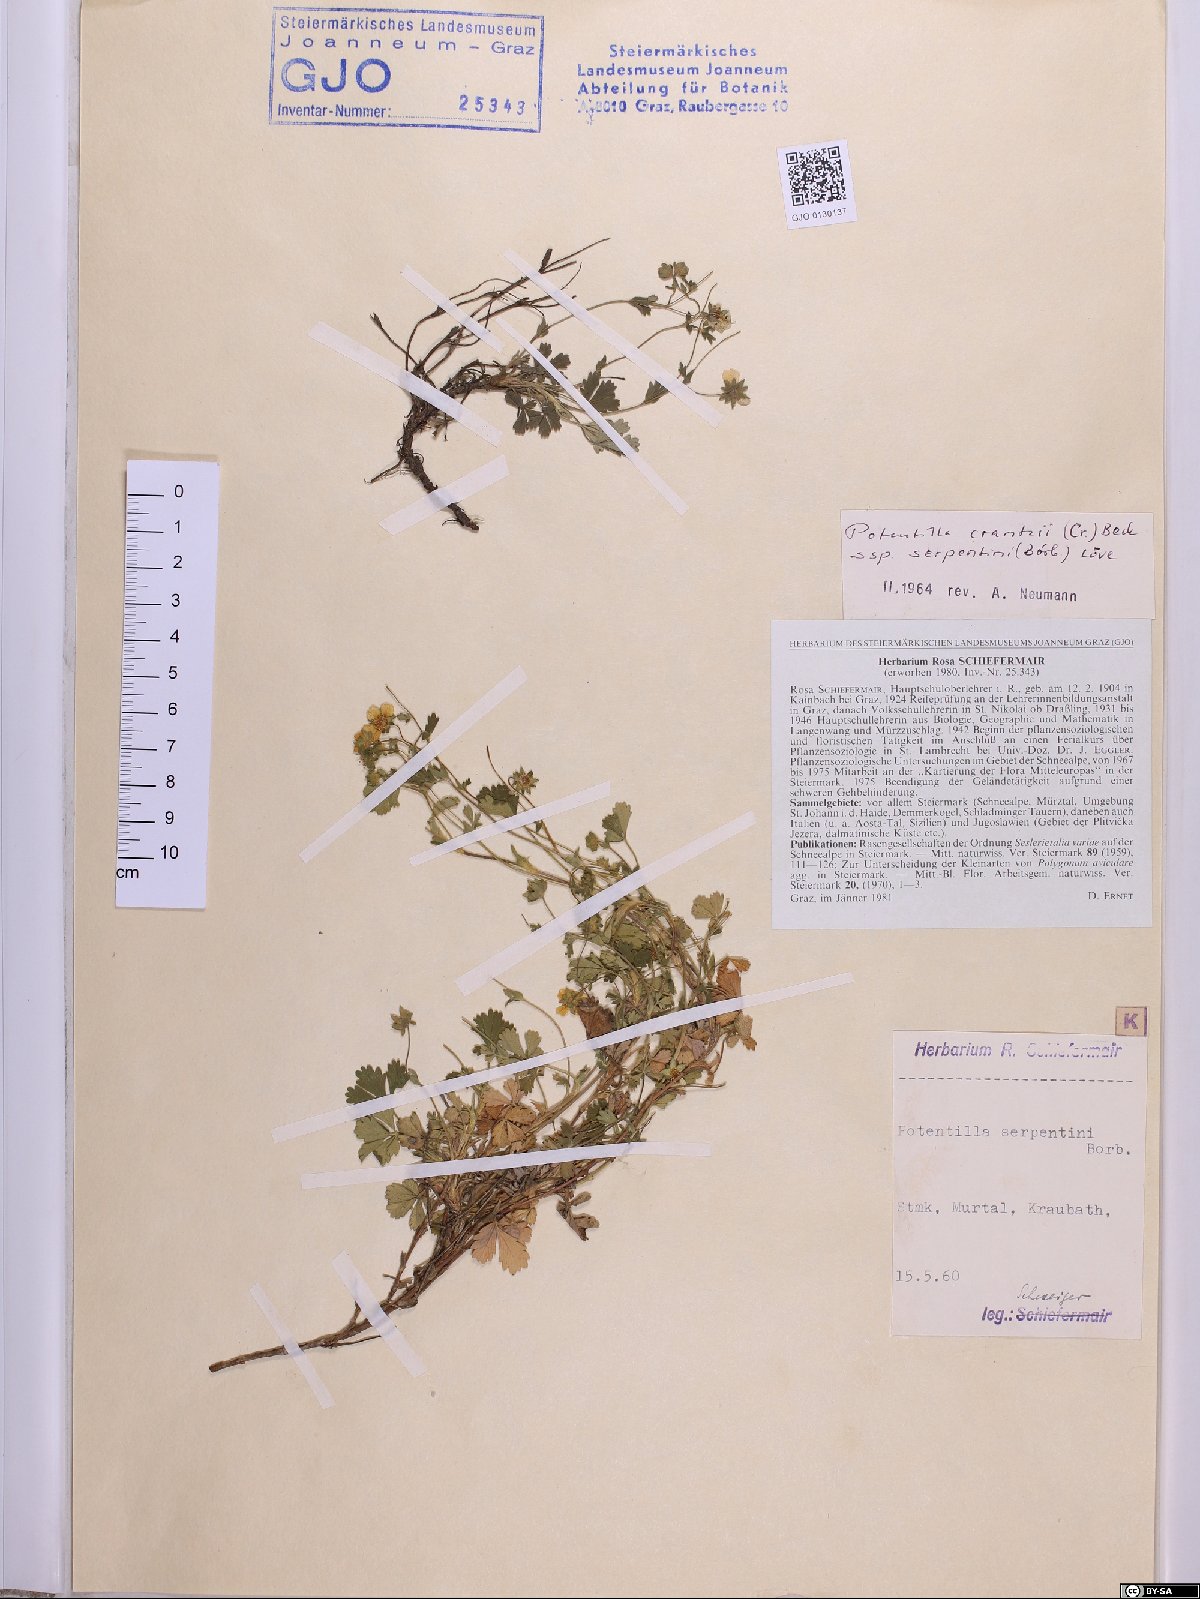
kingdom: Plantae
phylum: Tracheophyta
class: Magnoliopsida
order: Rosales
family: Rosaceae
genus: Potentilla
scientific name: Potentilla crantzii
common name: Alpine cinquefoil
